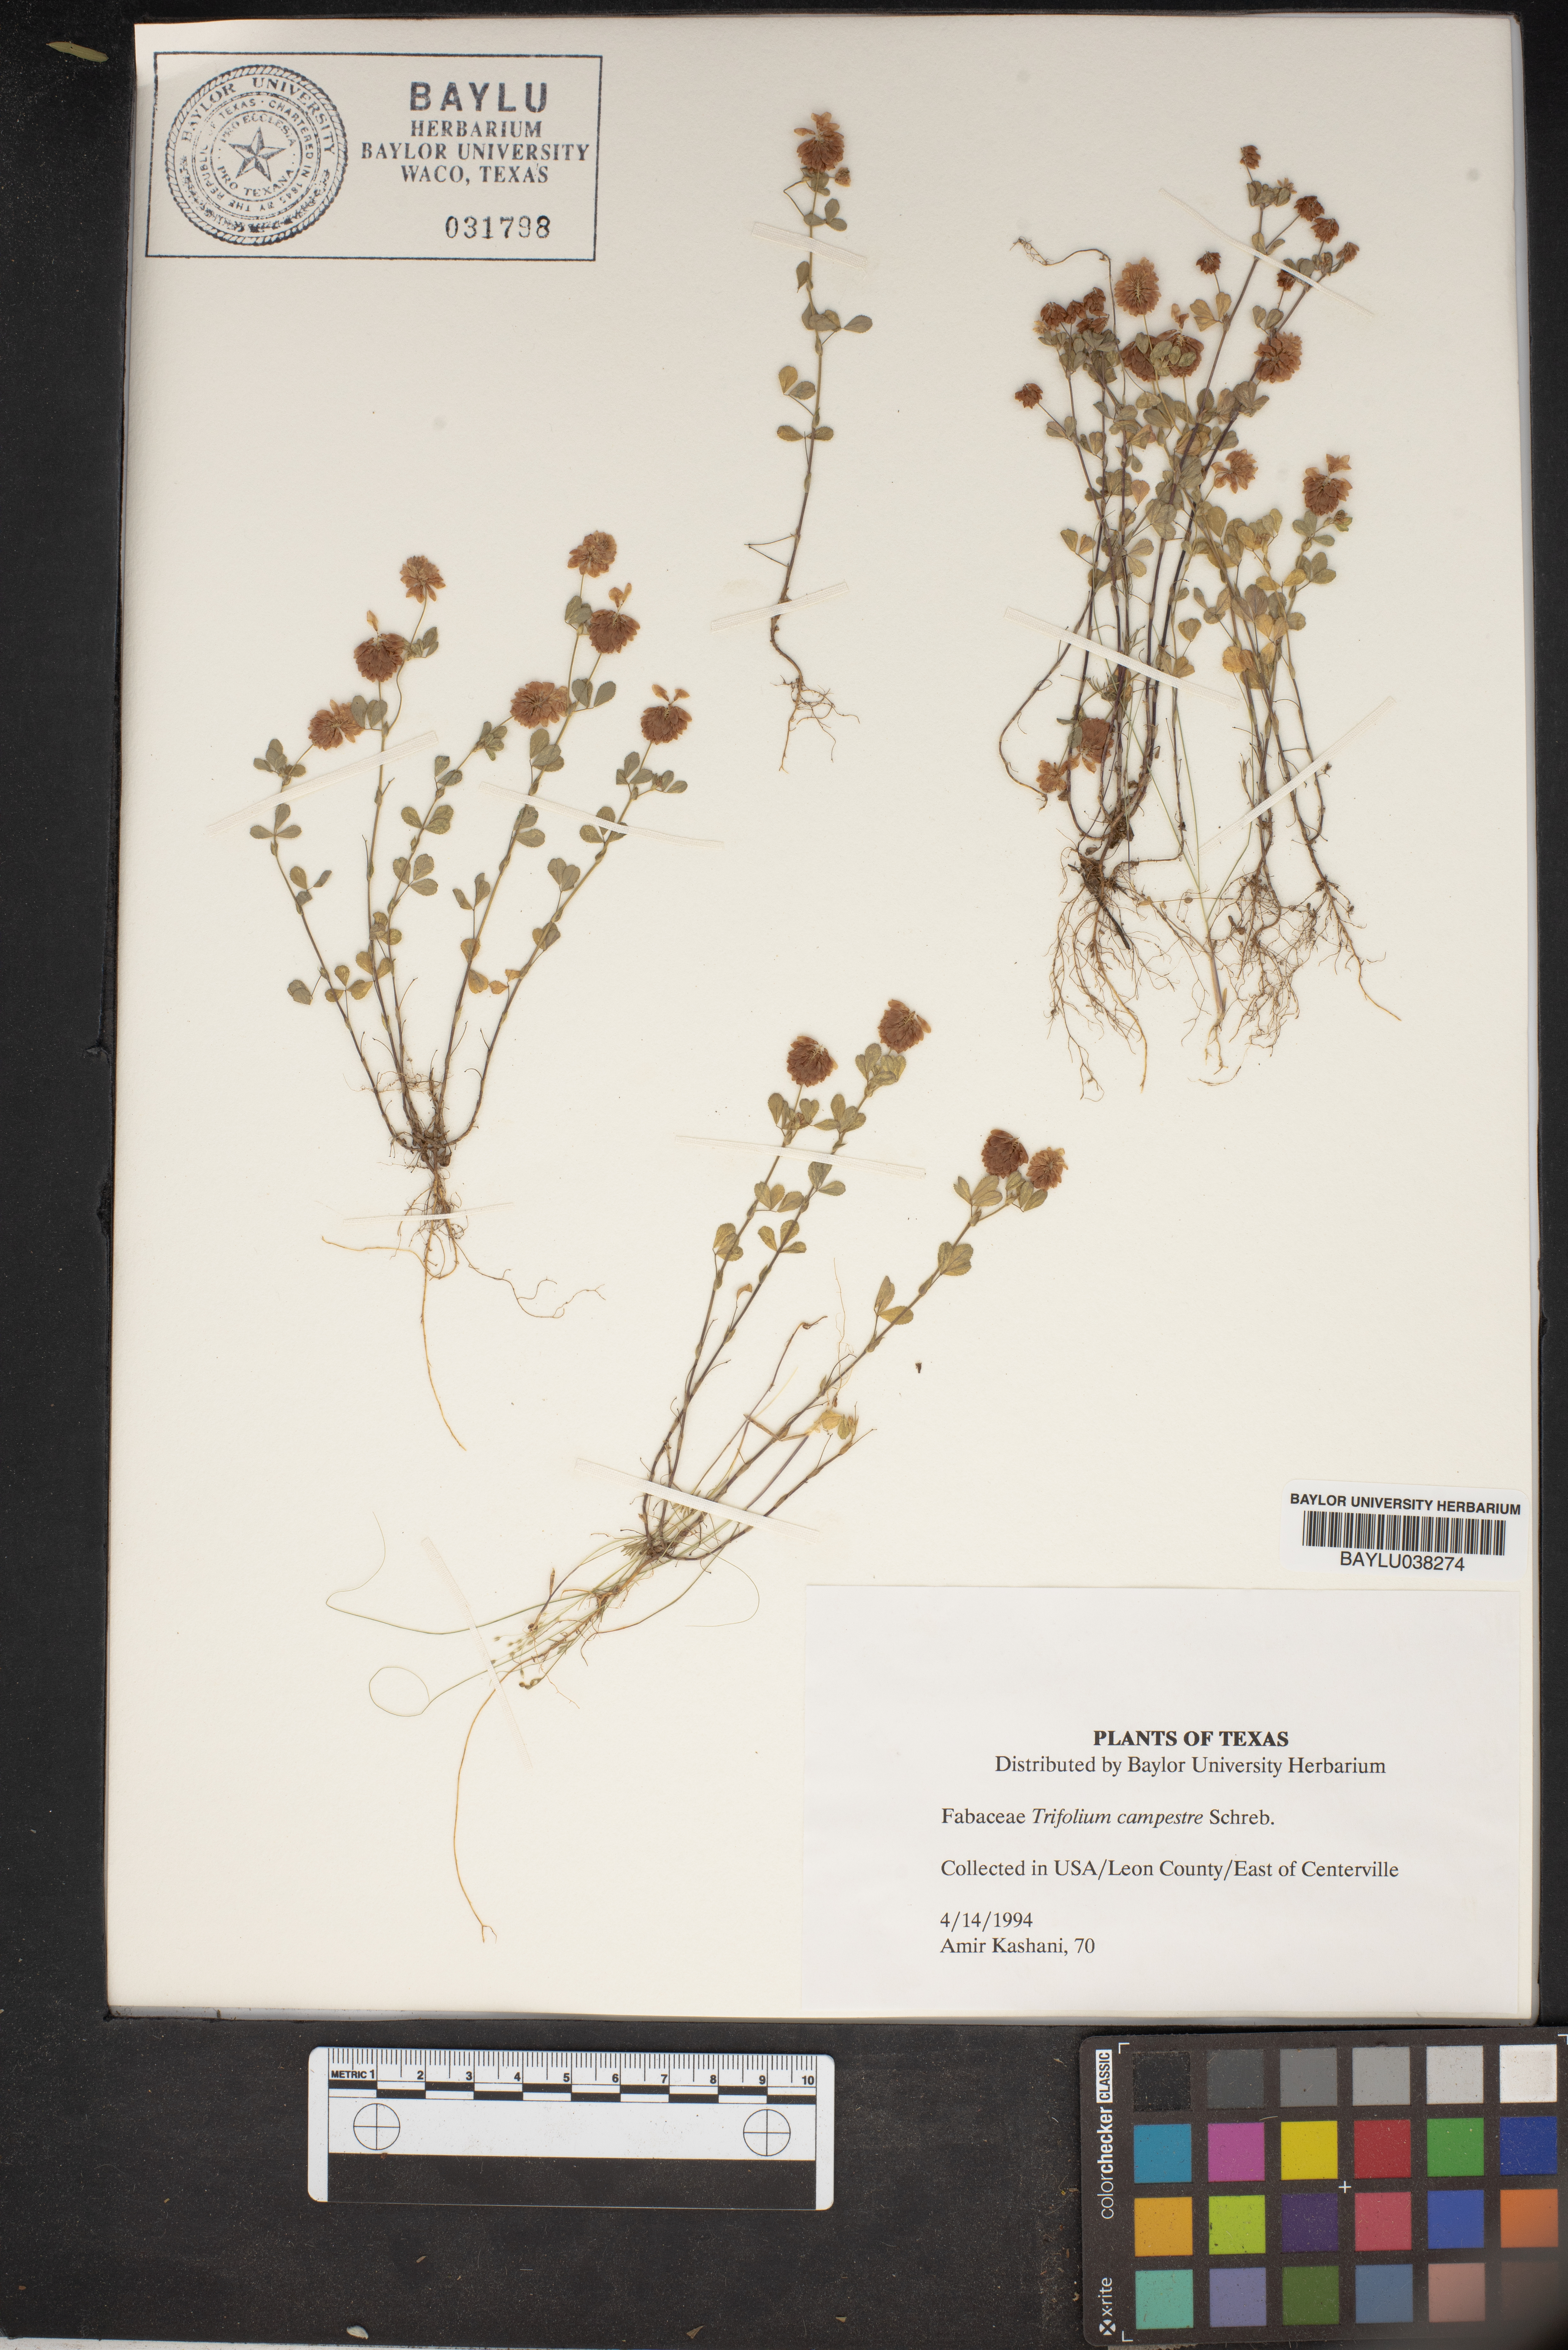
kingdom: Plantae
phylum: Tracheophyta
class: Magnoliopsida
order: Fabales
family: Fabaceae
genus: Trifolium
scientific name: Trifolium campestre
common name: Field clover
